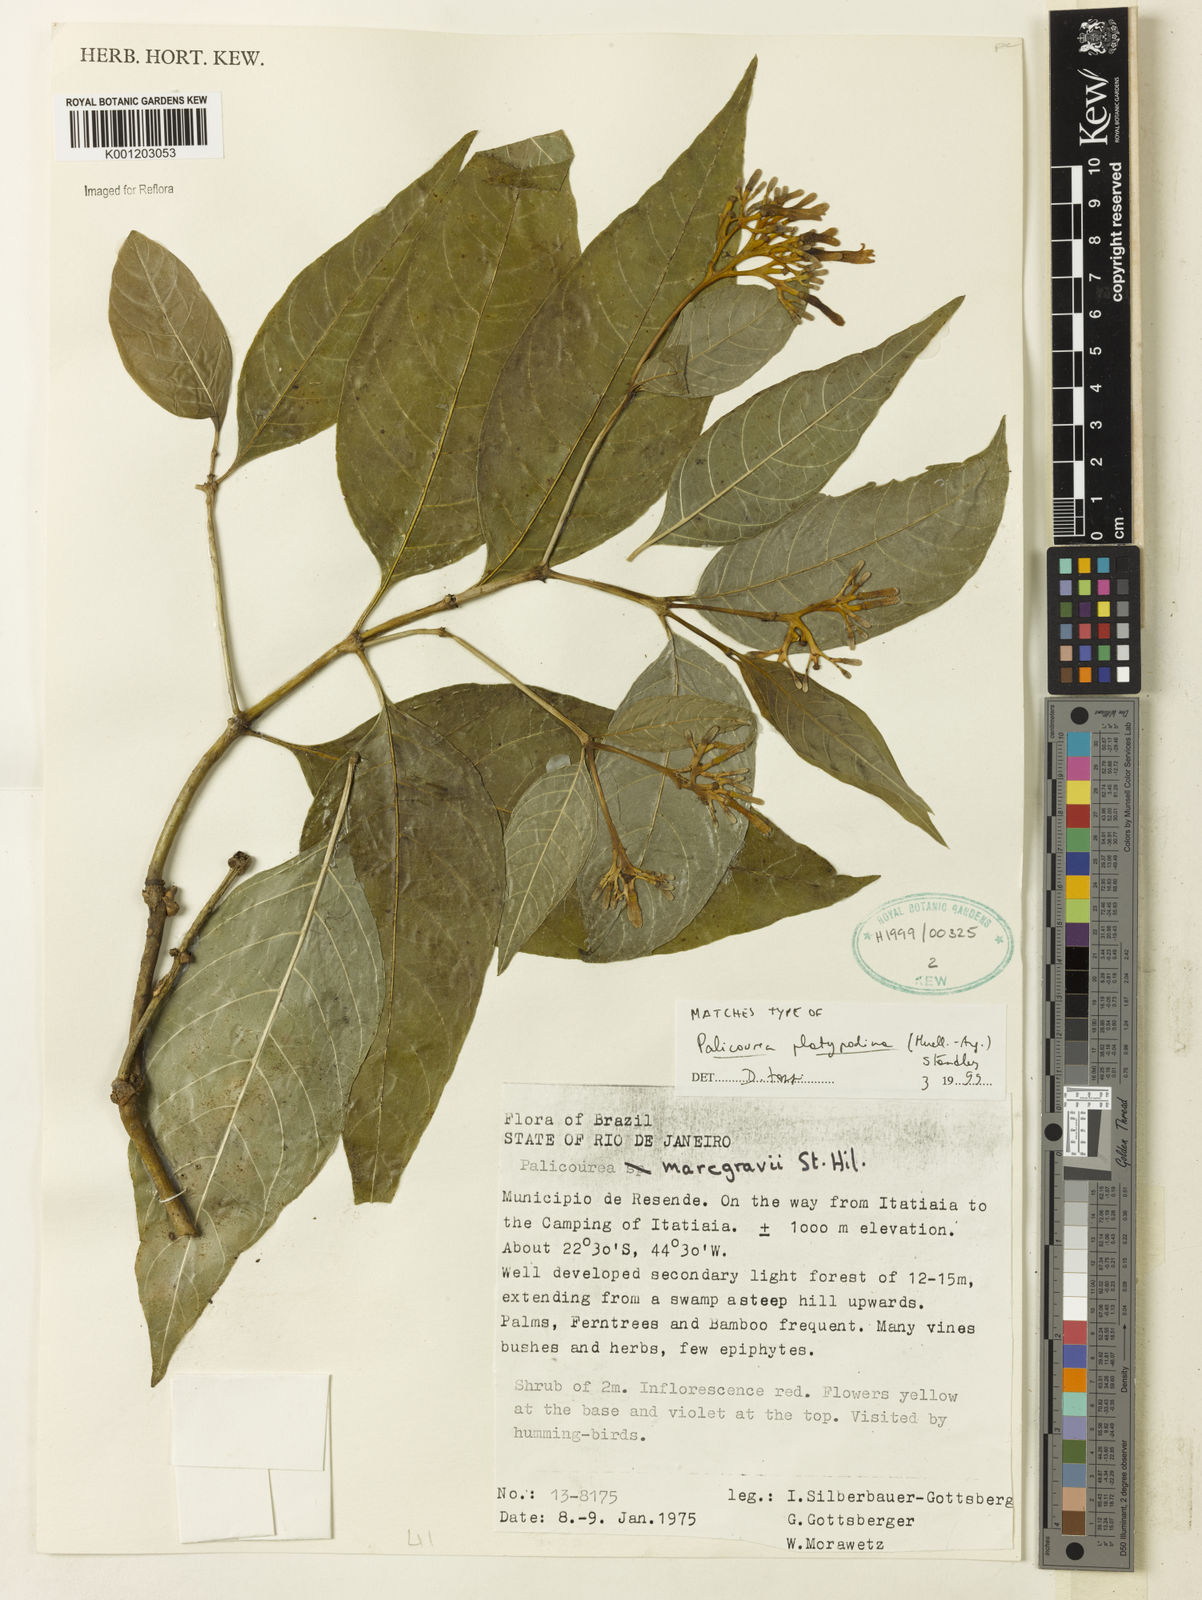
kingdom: Plantae
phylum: Tracheophyta
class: Magnoliopsida
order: Gentianales
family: Rubiaceae
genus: Palicourea
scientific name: Palicourea
